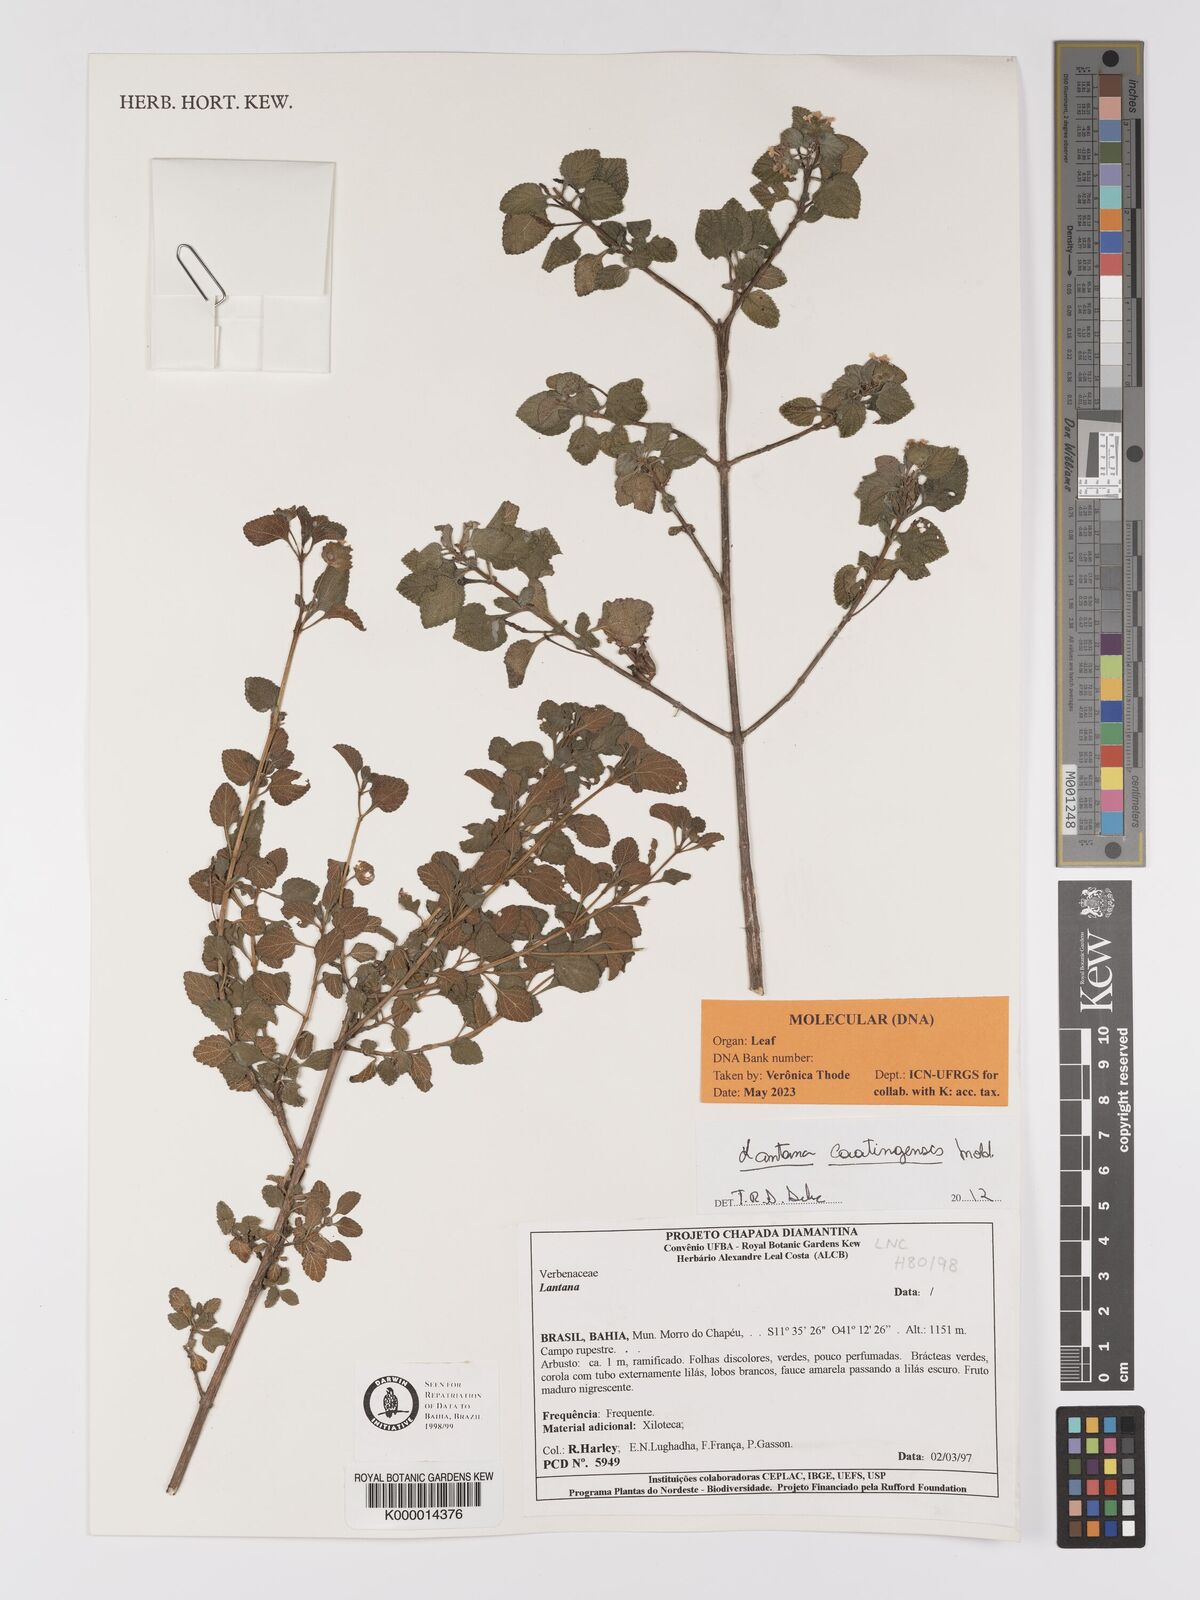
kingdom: Plantae
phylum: Tracheophyta
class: Magnoliopsida
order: Lamiales
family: Verbenaceae
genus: Lantana
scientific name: Lantana caatingensis
